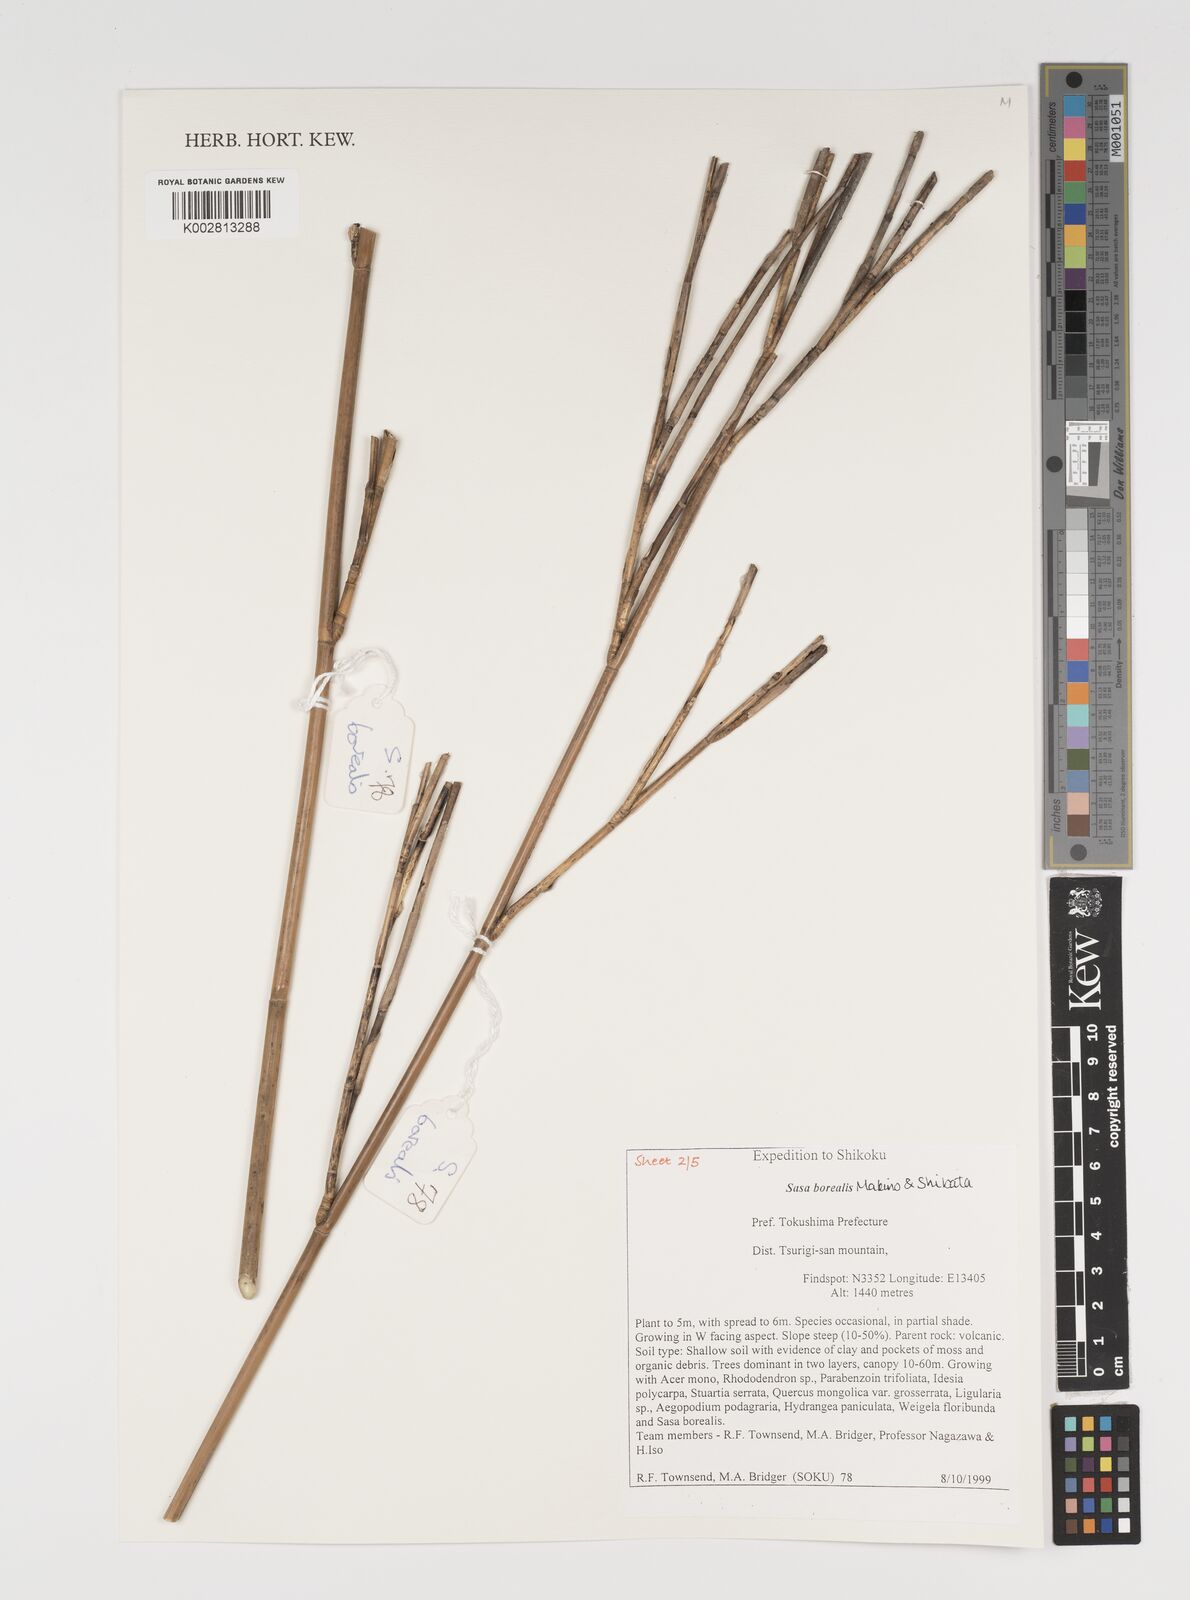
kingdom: Plantae
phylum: Tracheophyta
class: Liliopsida
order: Poales
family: Poaceae
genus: Sasamorpha
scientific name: Sasamorpha borealis
